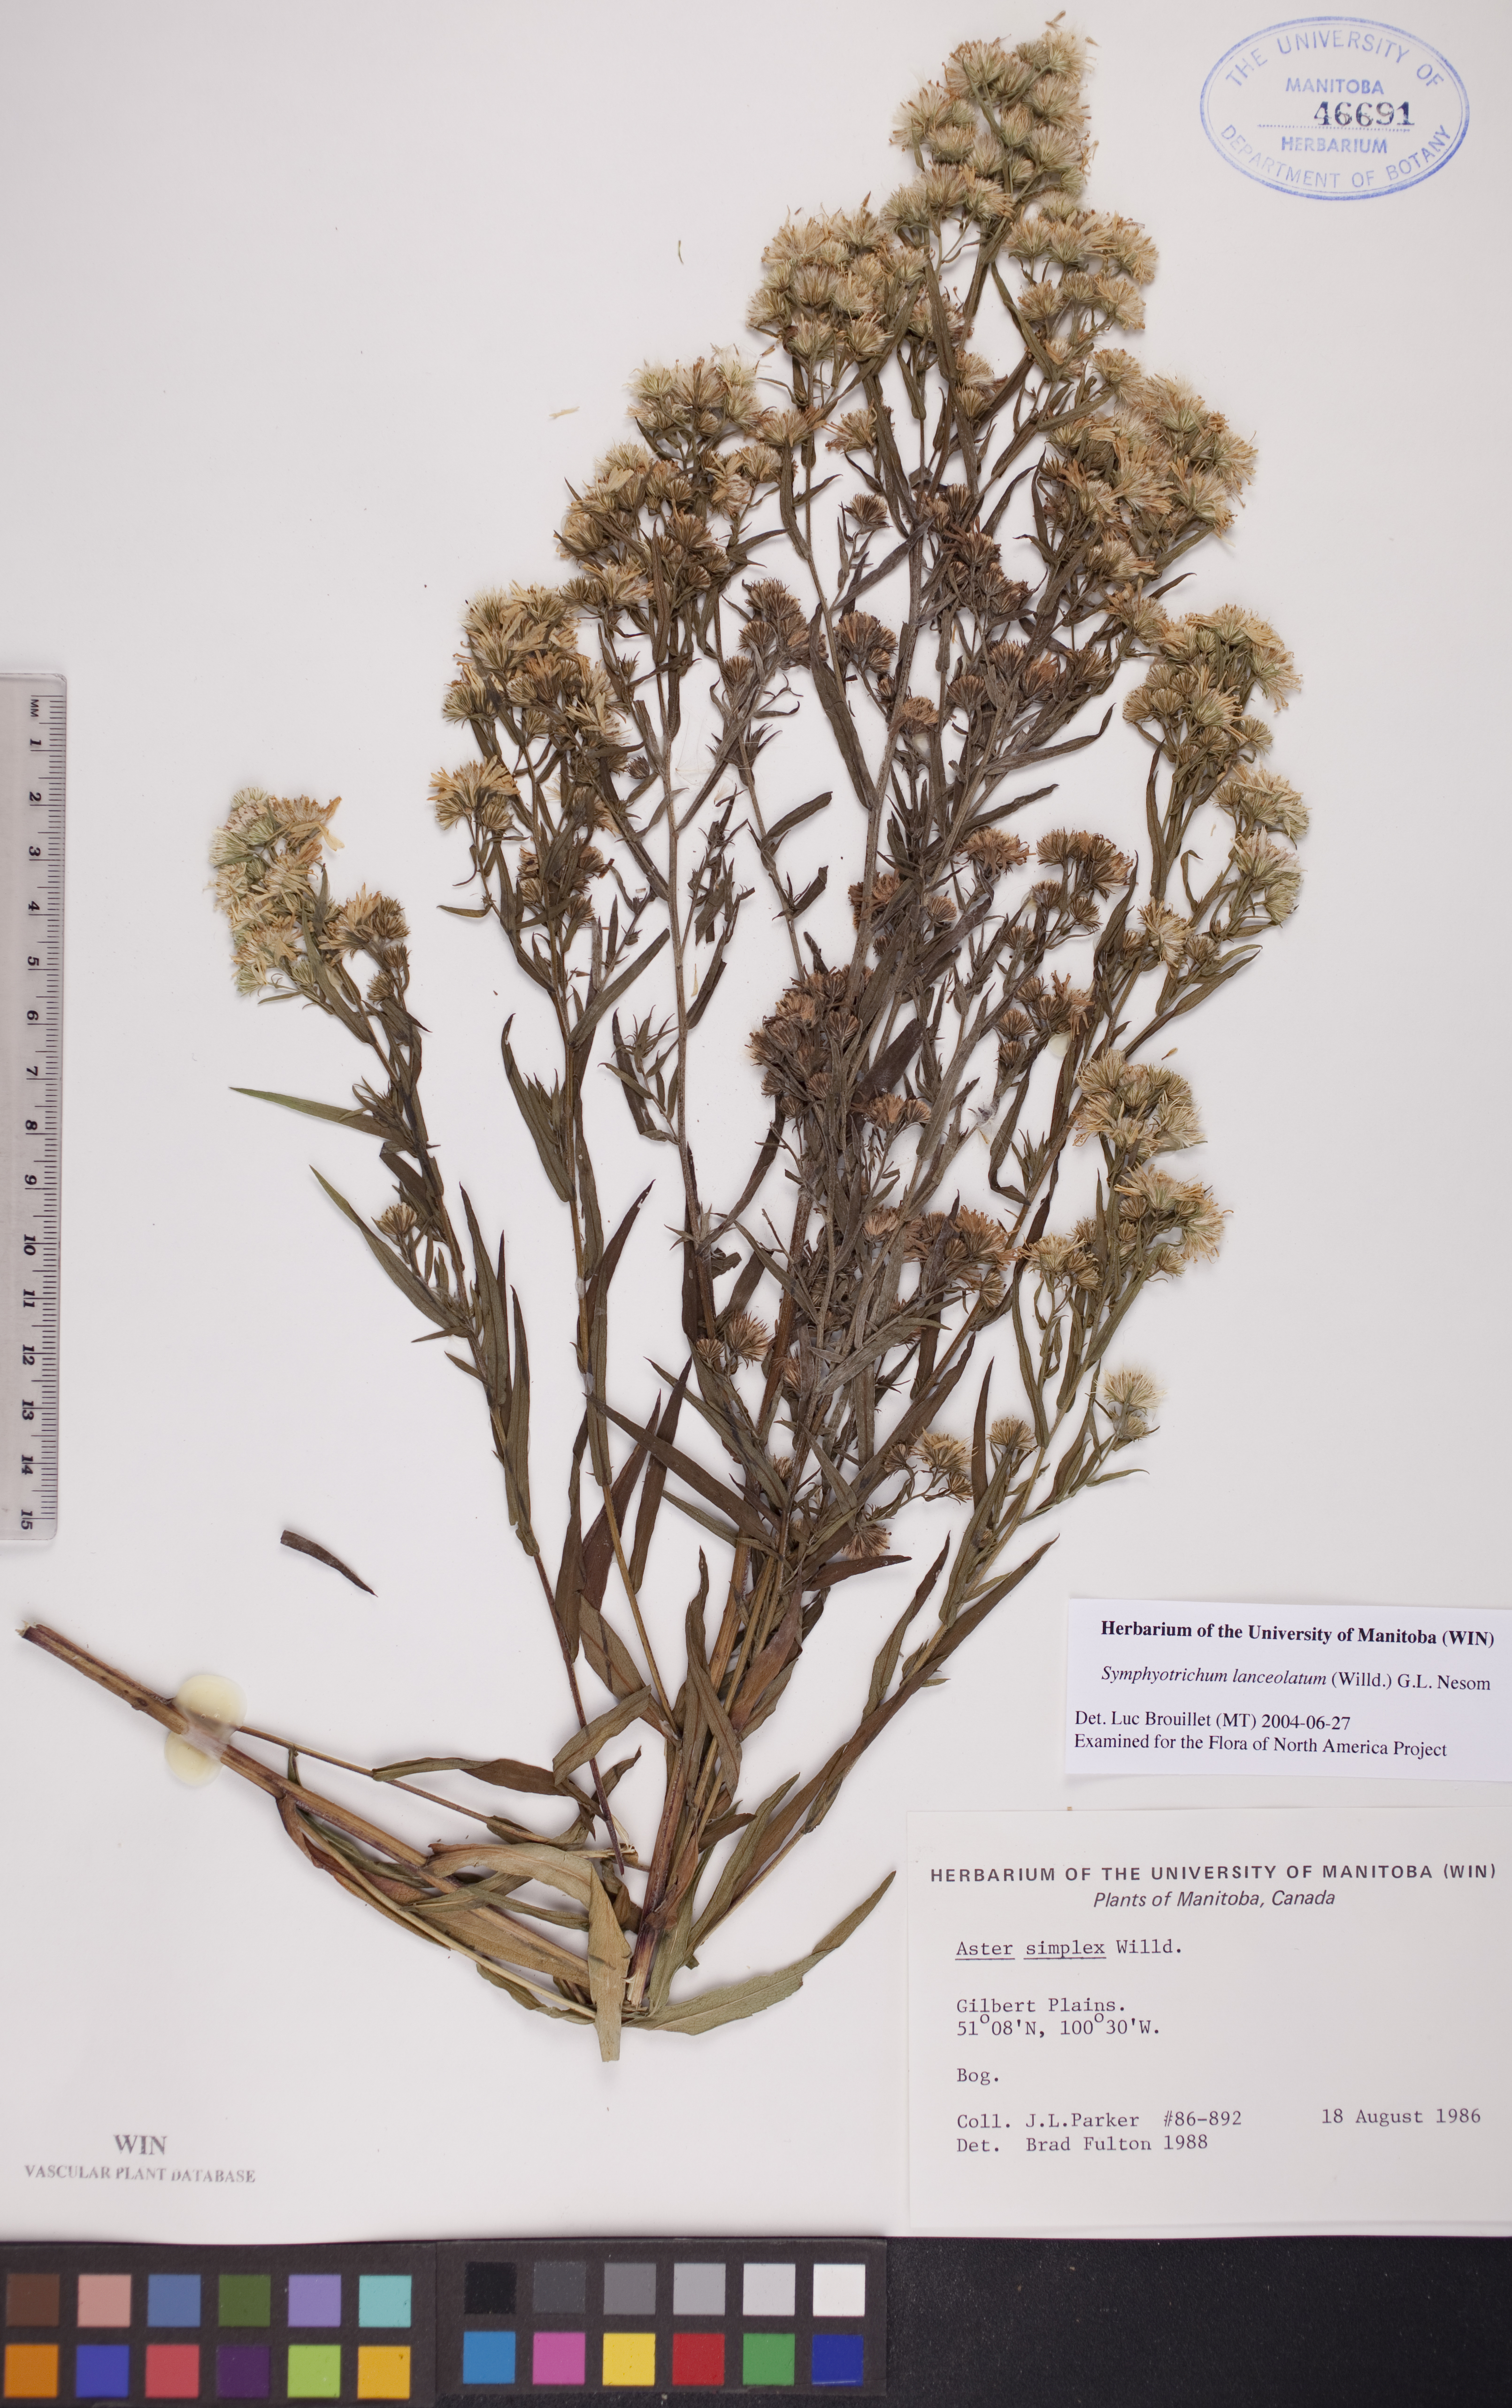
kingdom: Plantae
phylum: Tracheophyta
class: Magnoliopsida
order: Asterales
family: Asteraceae
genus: Symphyotrichum
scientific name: Symphyotrichum lanceolatum
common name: Panicled aster
